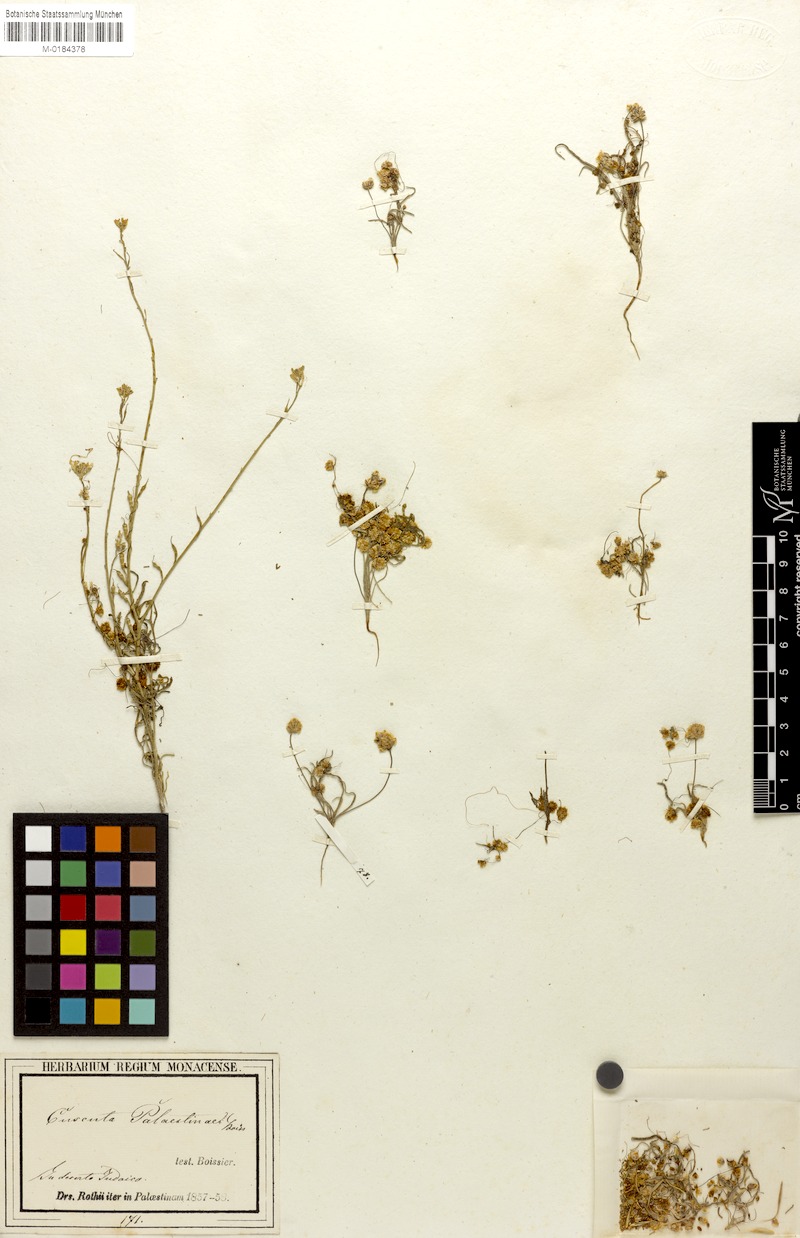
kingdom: Plantae
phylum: Tracheophyta
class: Magnoliopsida
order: Solanales
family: Convolvulaceae
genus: Cuscuta
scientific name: Cuscuta palaestina
